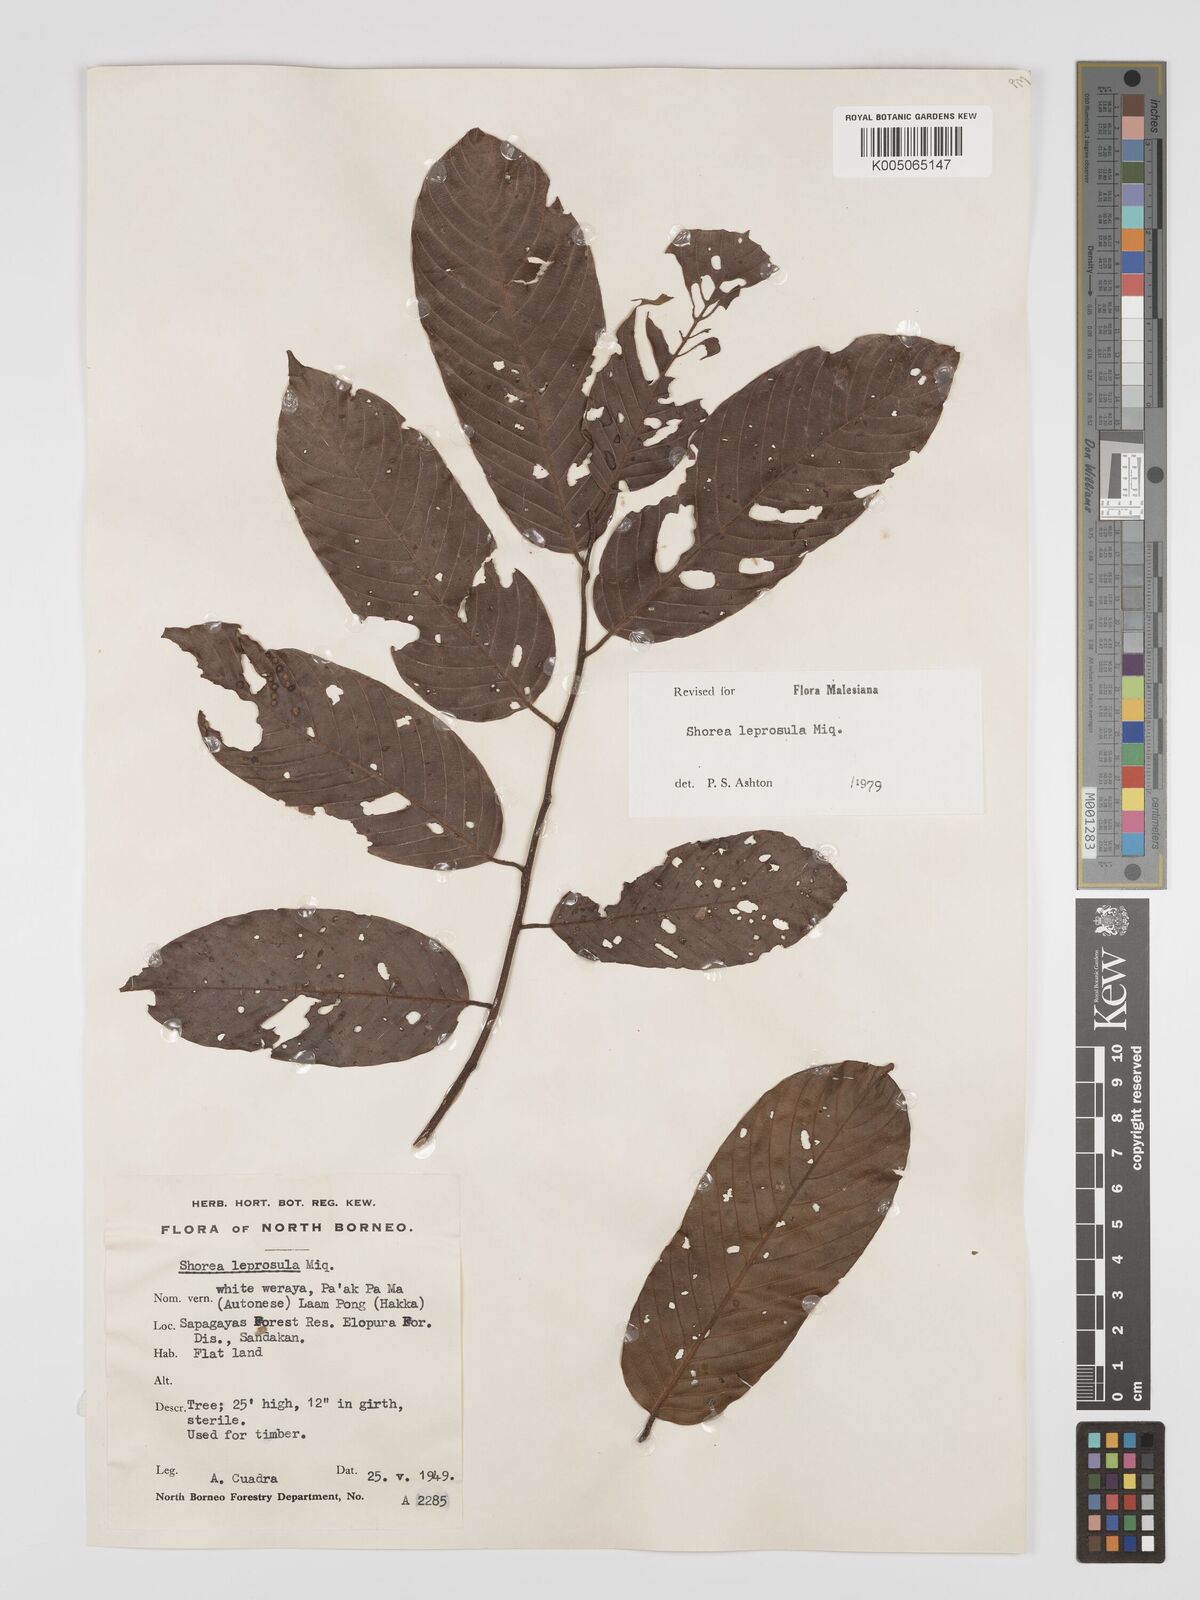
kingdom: Plantae
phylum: Tracheophyta
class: Magnoliopsida
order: Malvales
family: Dipterocarpaceae
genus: Shorea
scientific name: Shorea leprosula
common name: Light red meranti
